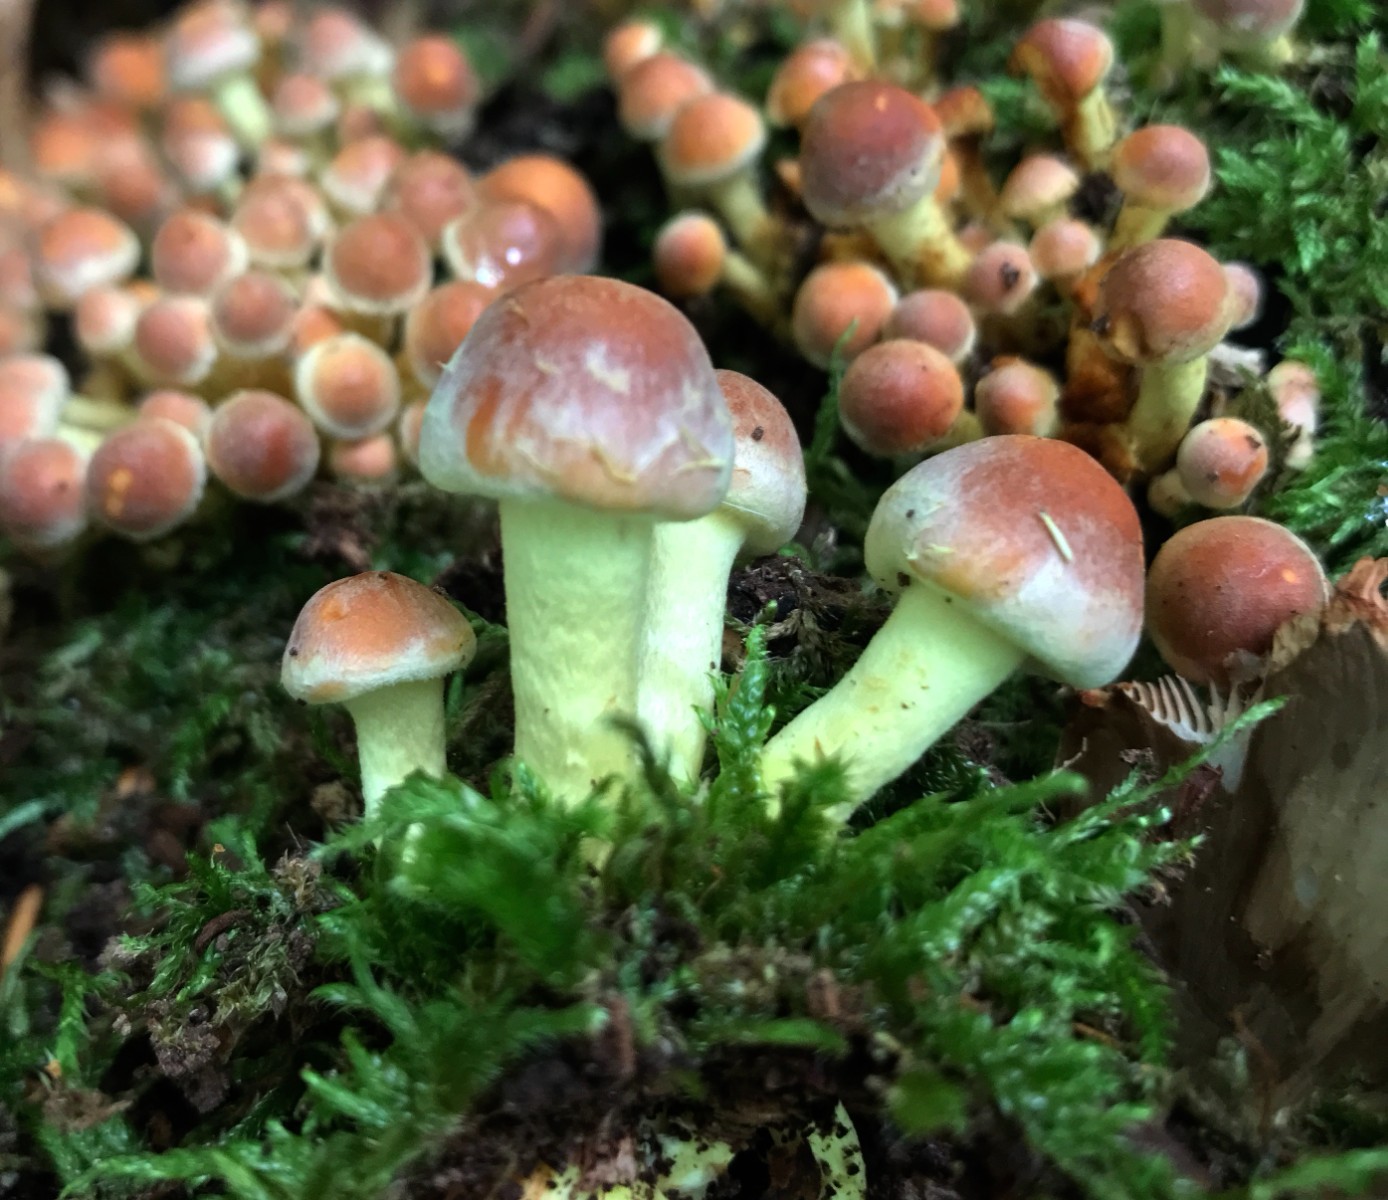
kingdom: Fungi
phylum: Basidiomycota
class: Agaricomycetes
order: Agaricales
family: Strophariaceae
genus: Hypholoma
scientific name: Hypholoma fasciculare
